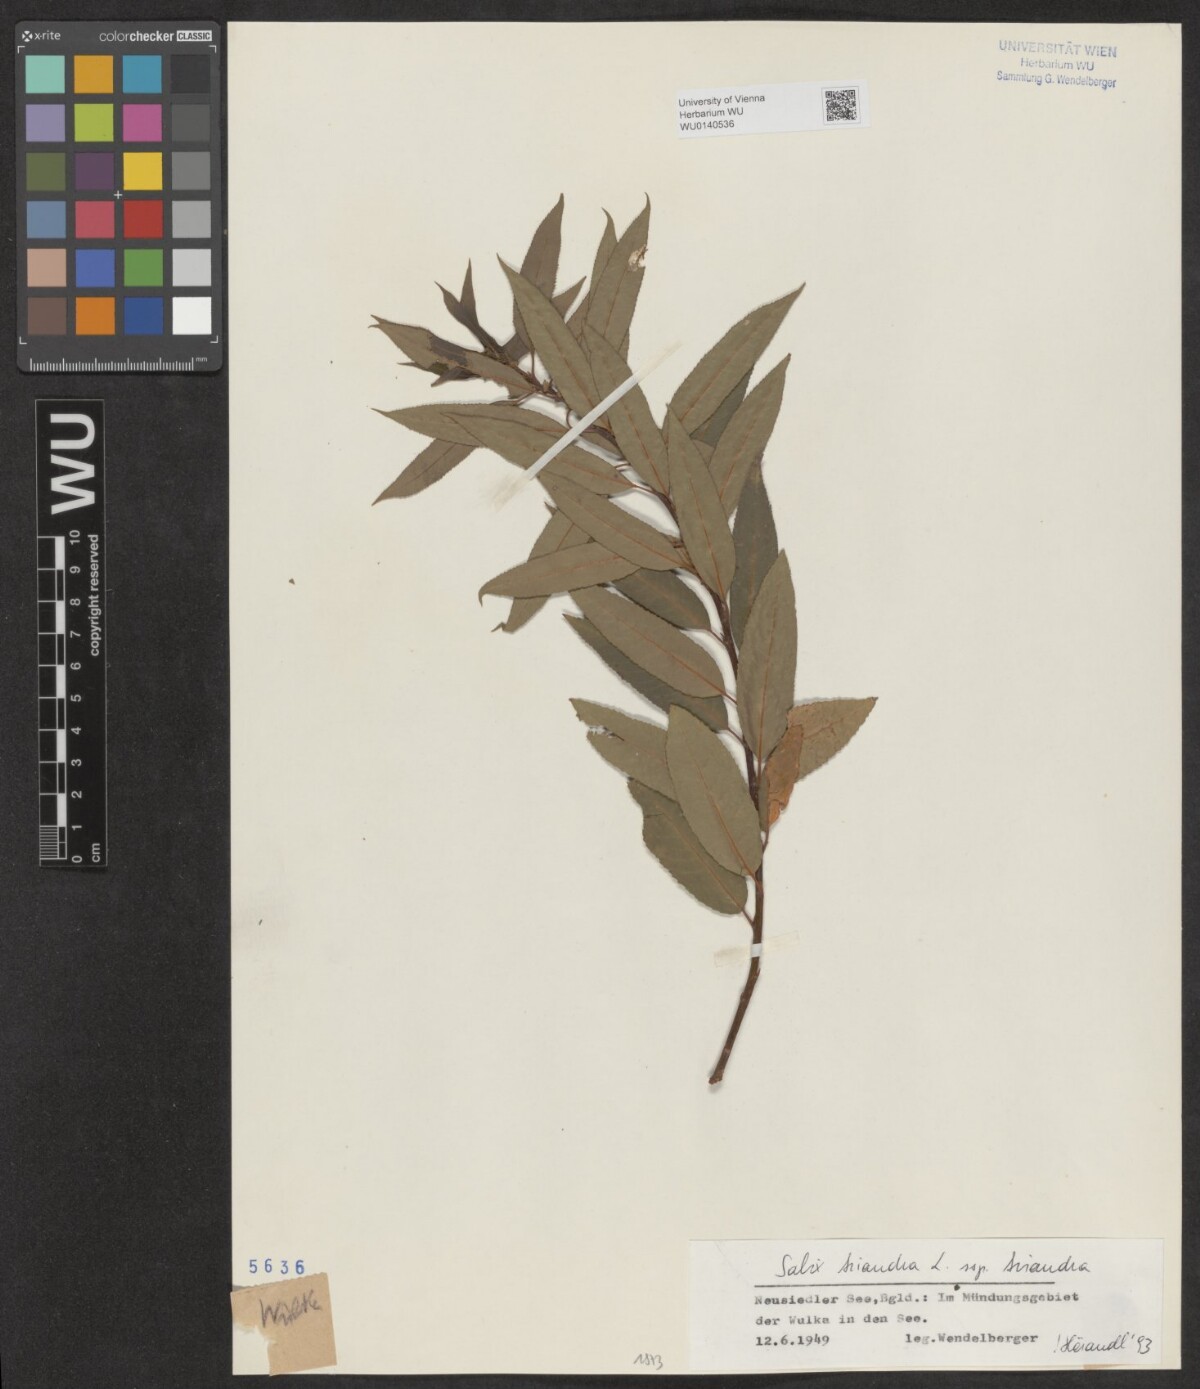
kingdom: Plantae
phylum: Tracheophyta
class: Magnoliopsida
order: Malpighiales
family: Salicaceae
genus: Salix
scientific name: Salix triandra
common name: Almond willow
